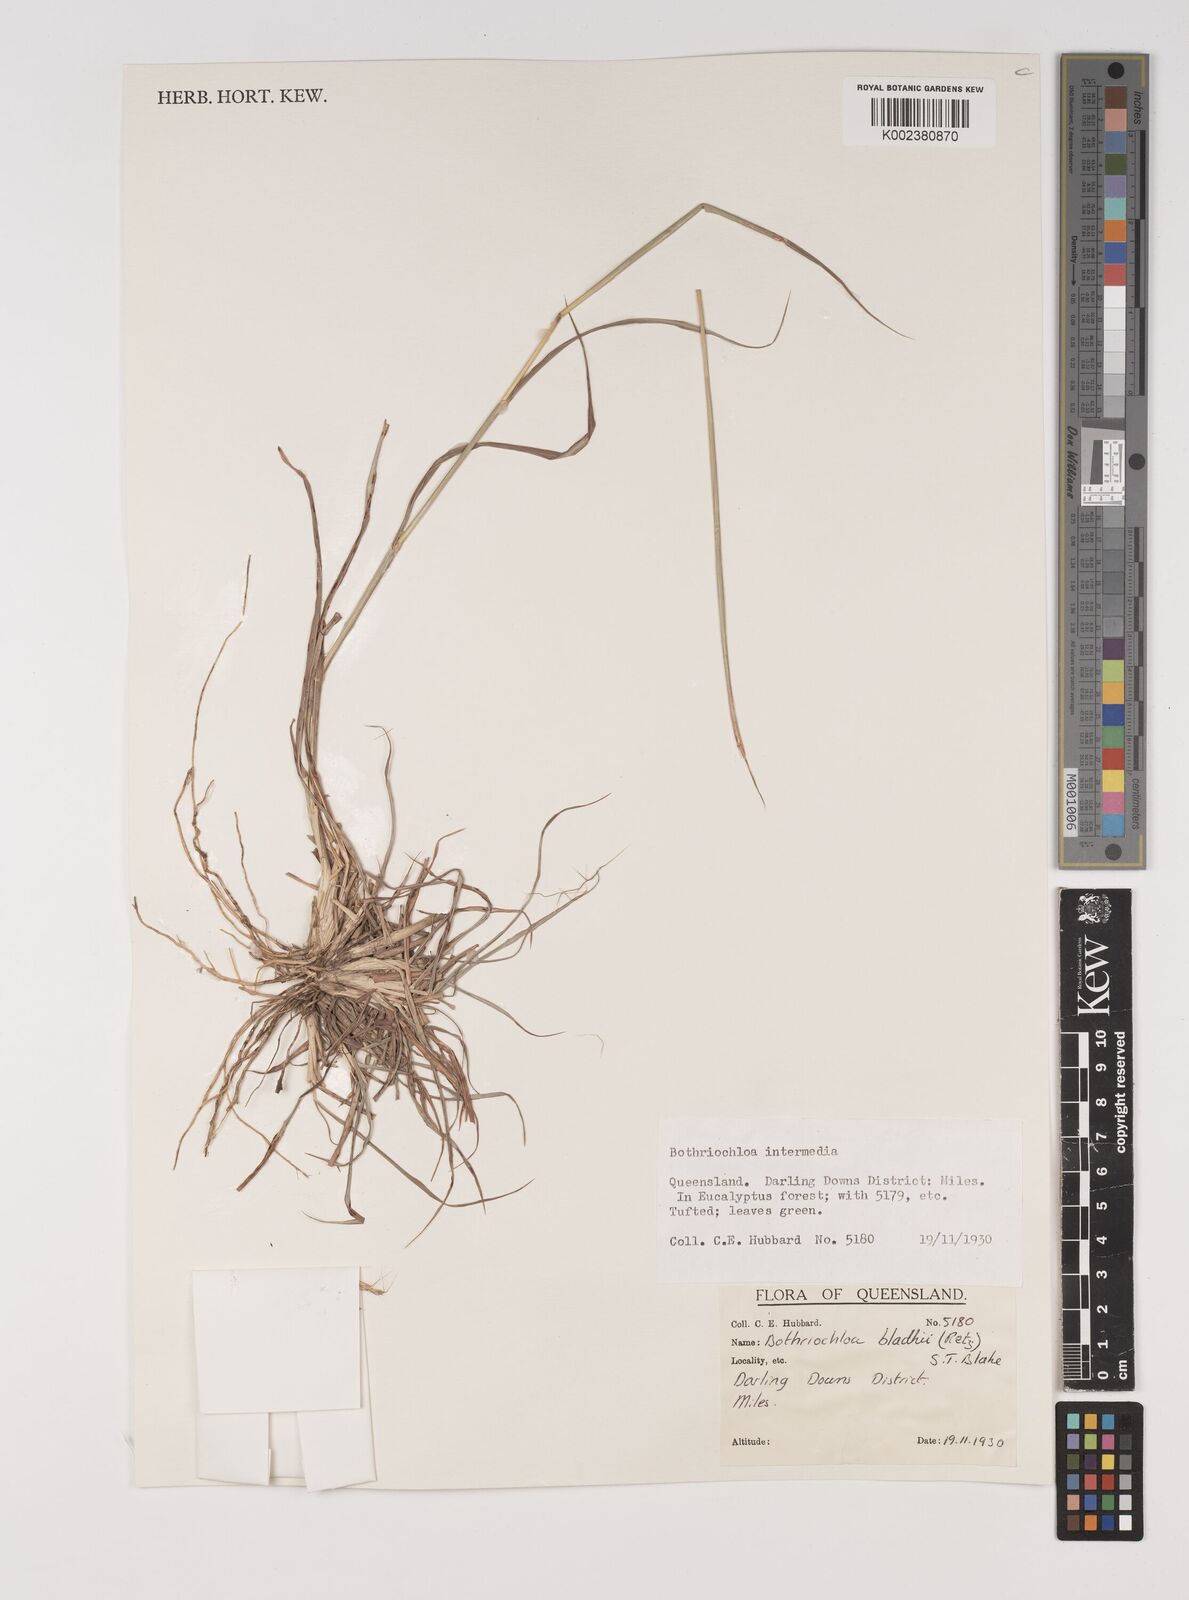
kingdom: Plantae
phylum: Tracheophyta
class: Liliopsida
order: Poales
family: Poaceae
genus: Bothriochloa
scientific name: Bothriochloa bladhii
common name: Caucasian bluestem
